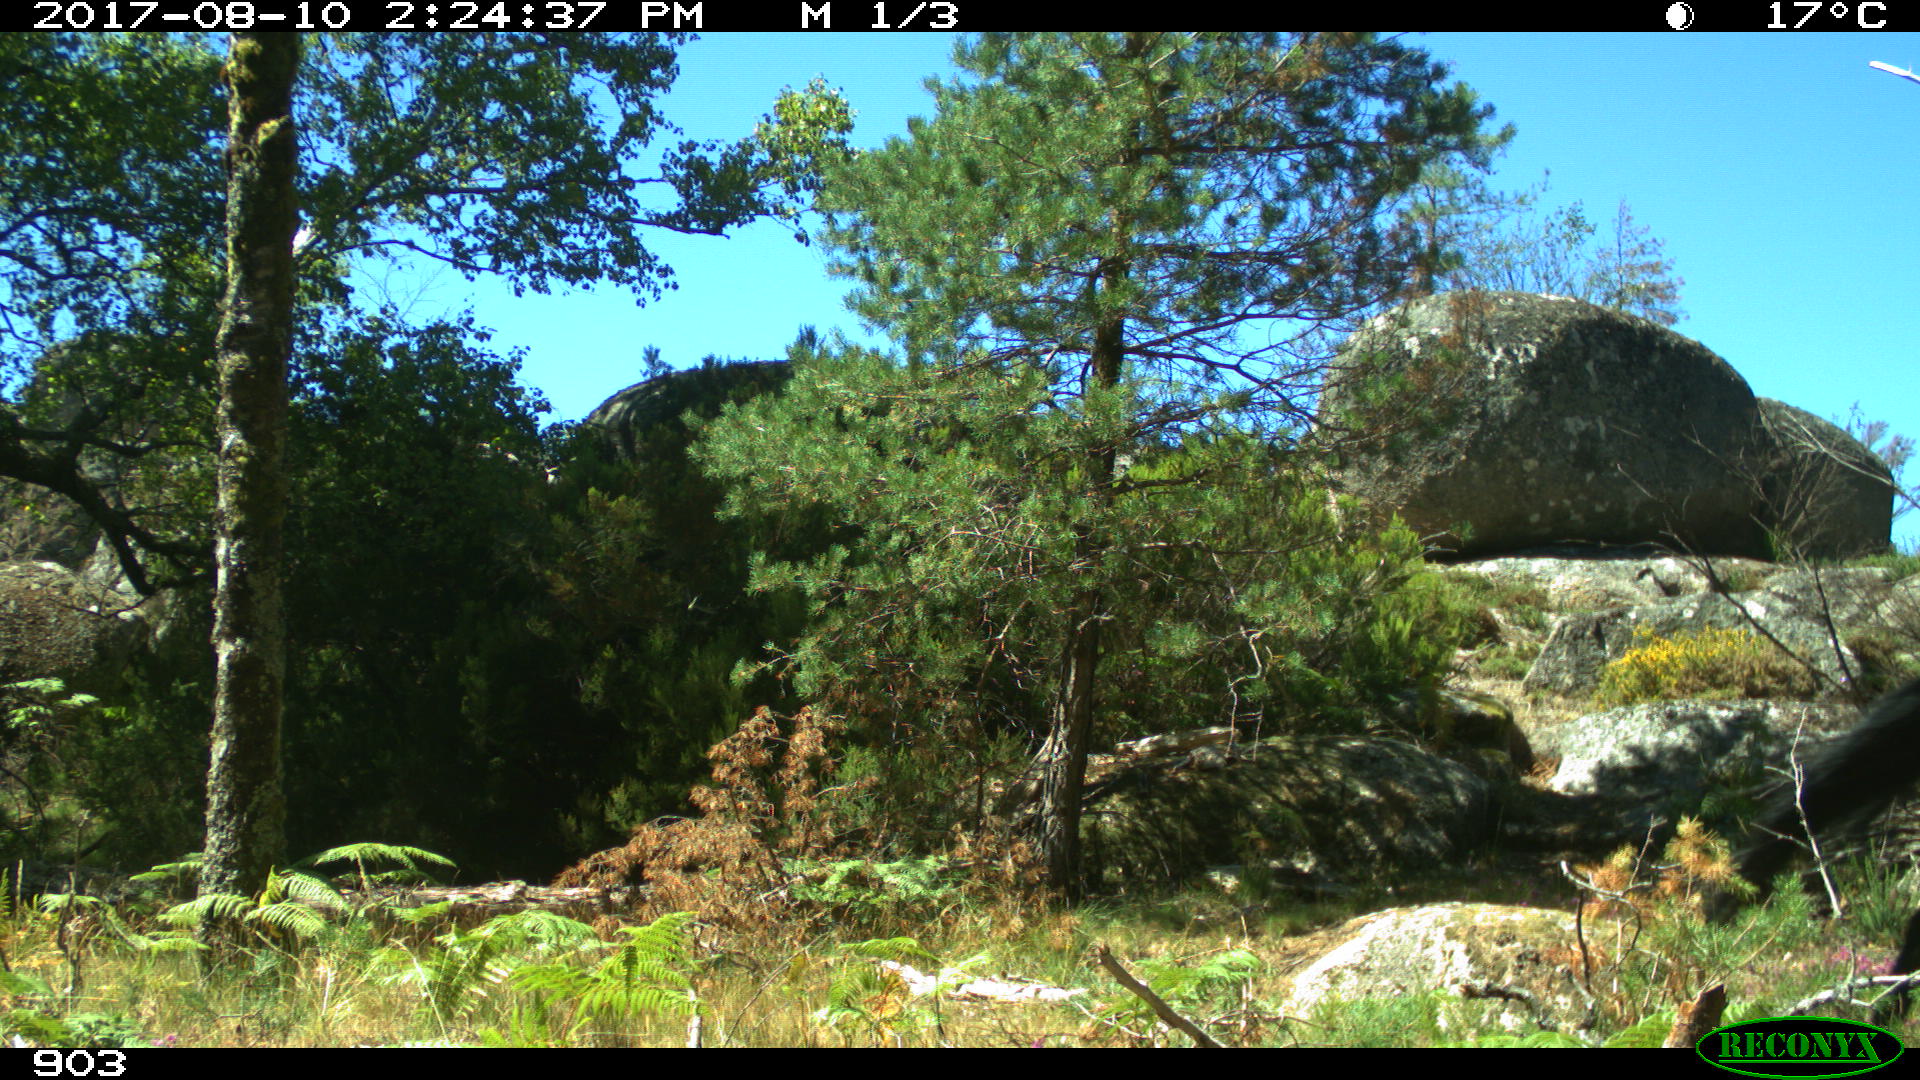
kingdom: Animalia
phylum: Chordata
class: Mammalia
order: Perissodactyla
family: Equidae
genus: Equus
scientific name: Equus caballus
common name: Horse
